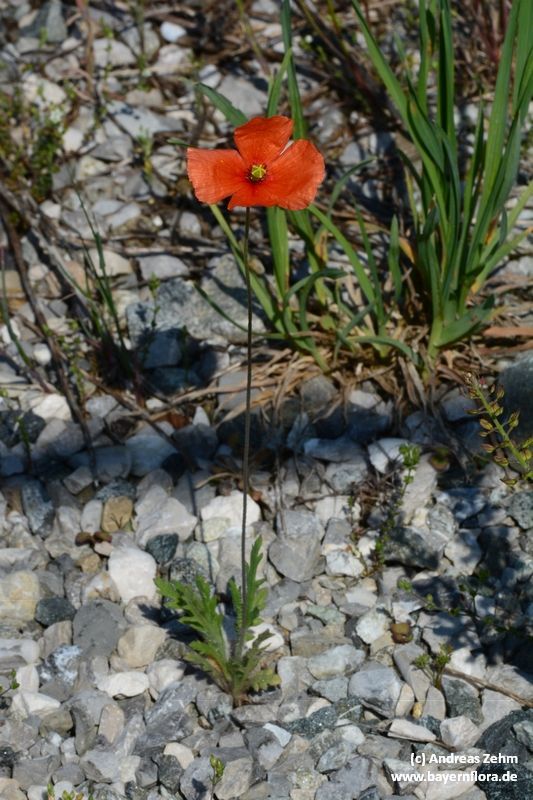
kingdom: Plantae
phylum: Tracheophyta
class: Magnoliopsida
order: Ranunculales
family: Papaveraceae
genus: Papaver
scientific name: Papaver dubium
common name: Long-headed poppy
